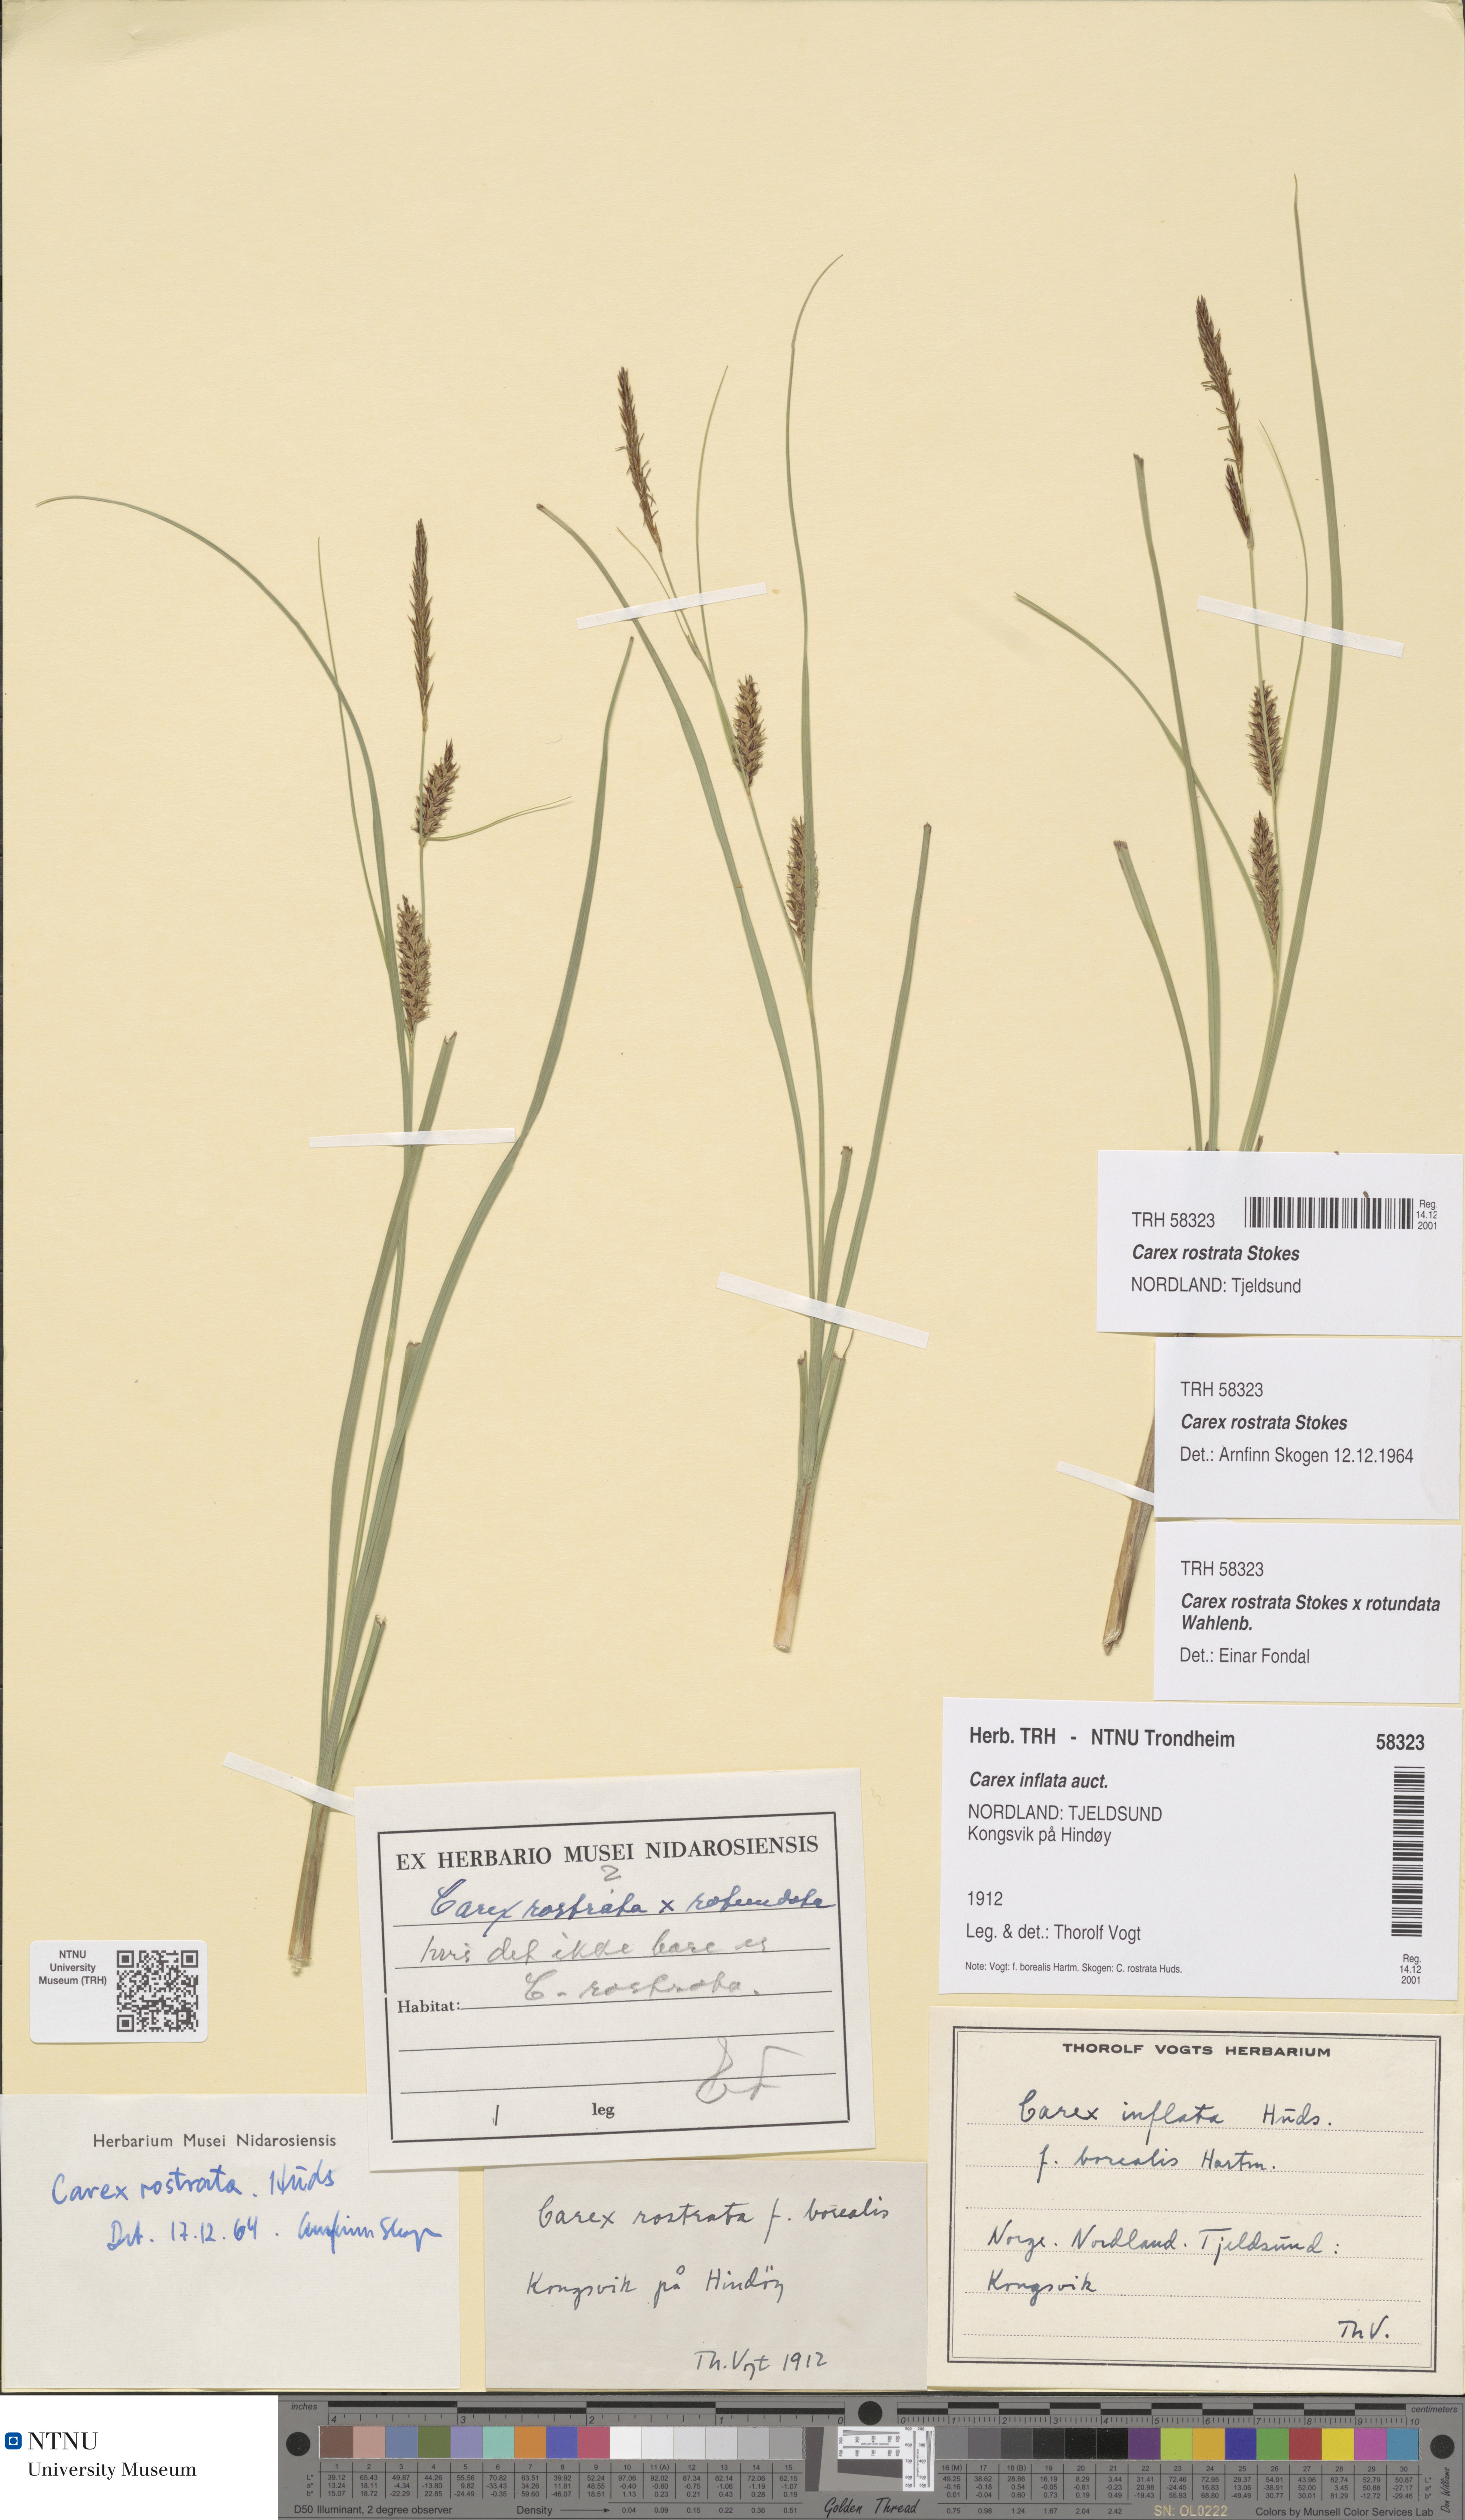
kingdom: Plantae
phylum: Tracheophyta
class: Liliopsida
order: Poales
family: Cyperaceae
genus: Carex
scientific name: Carex rostrata
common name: Bottle sedge
